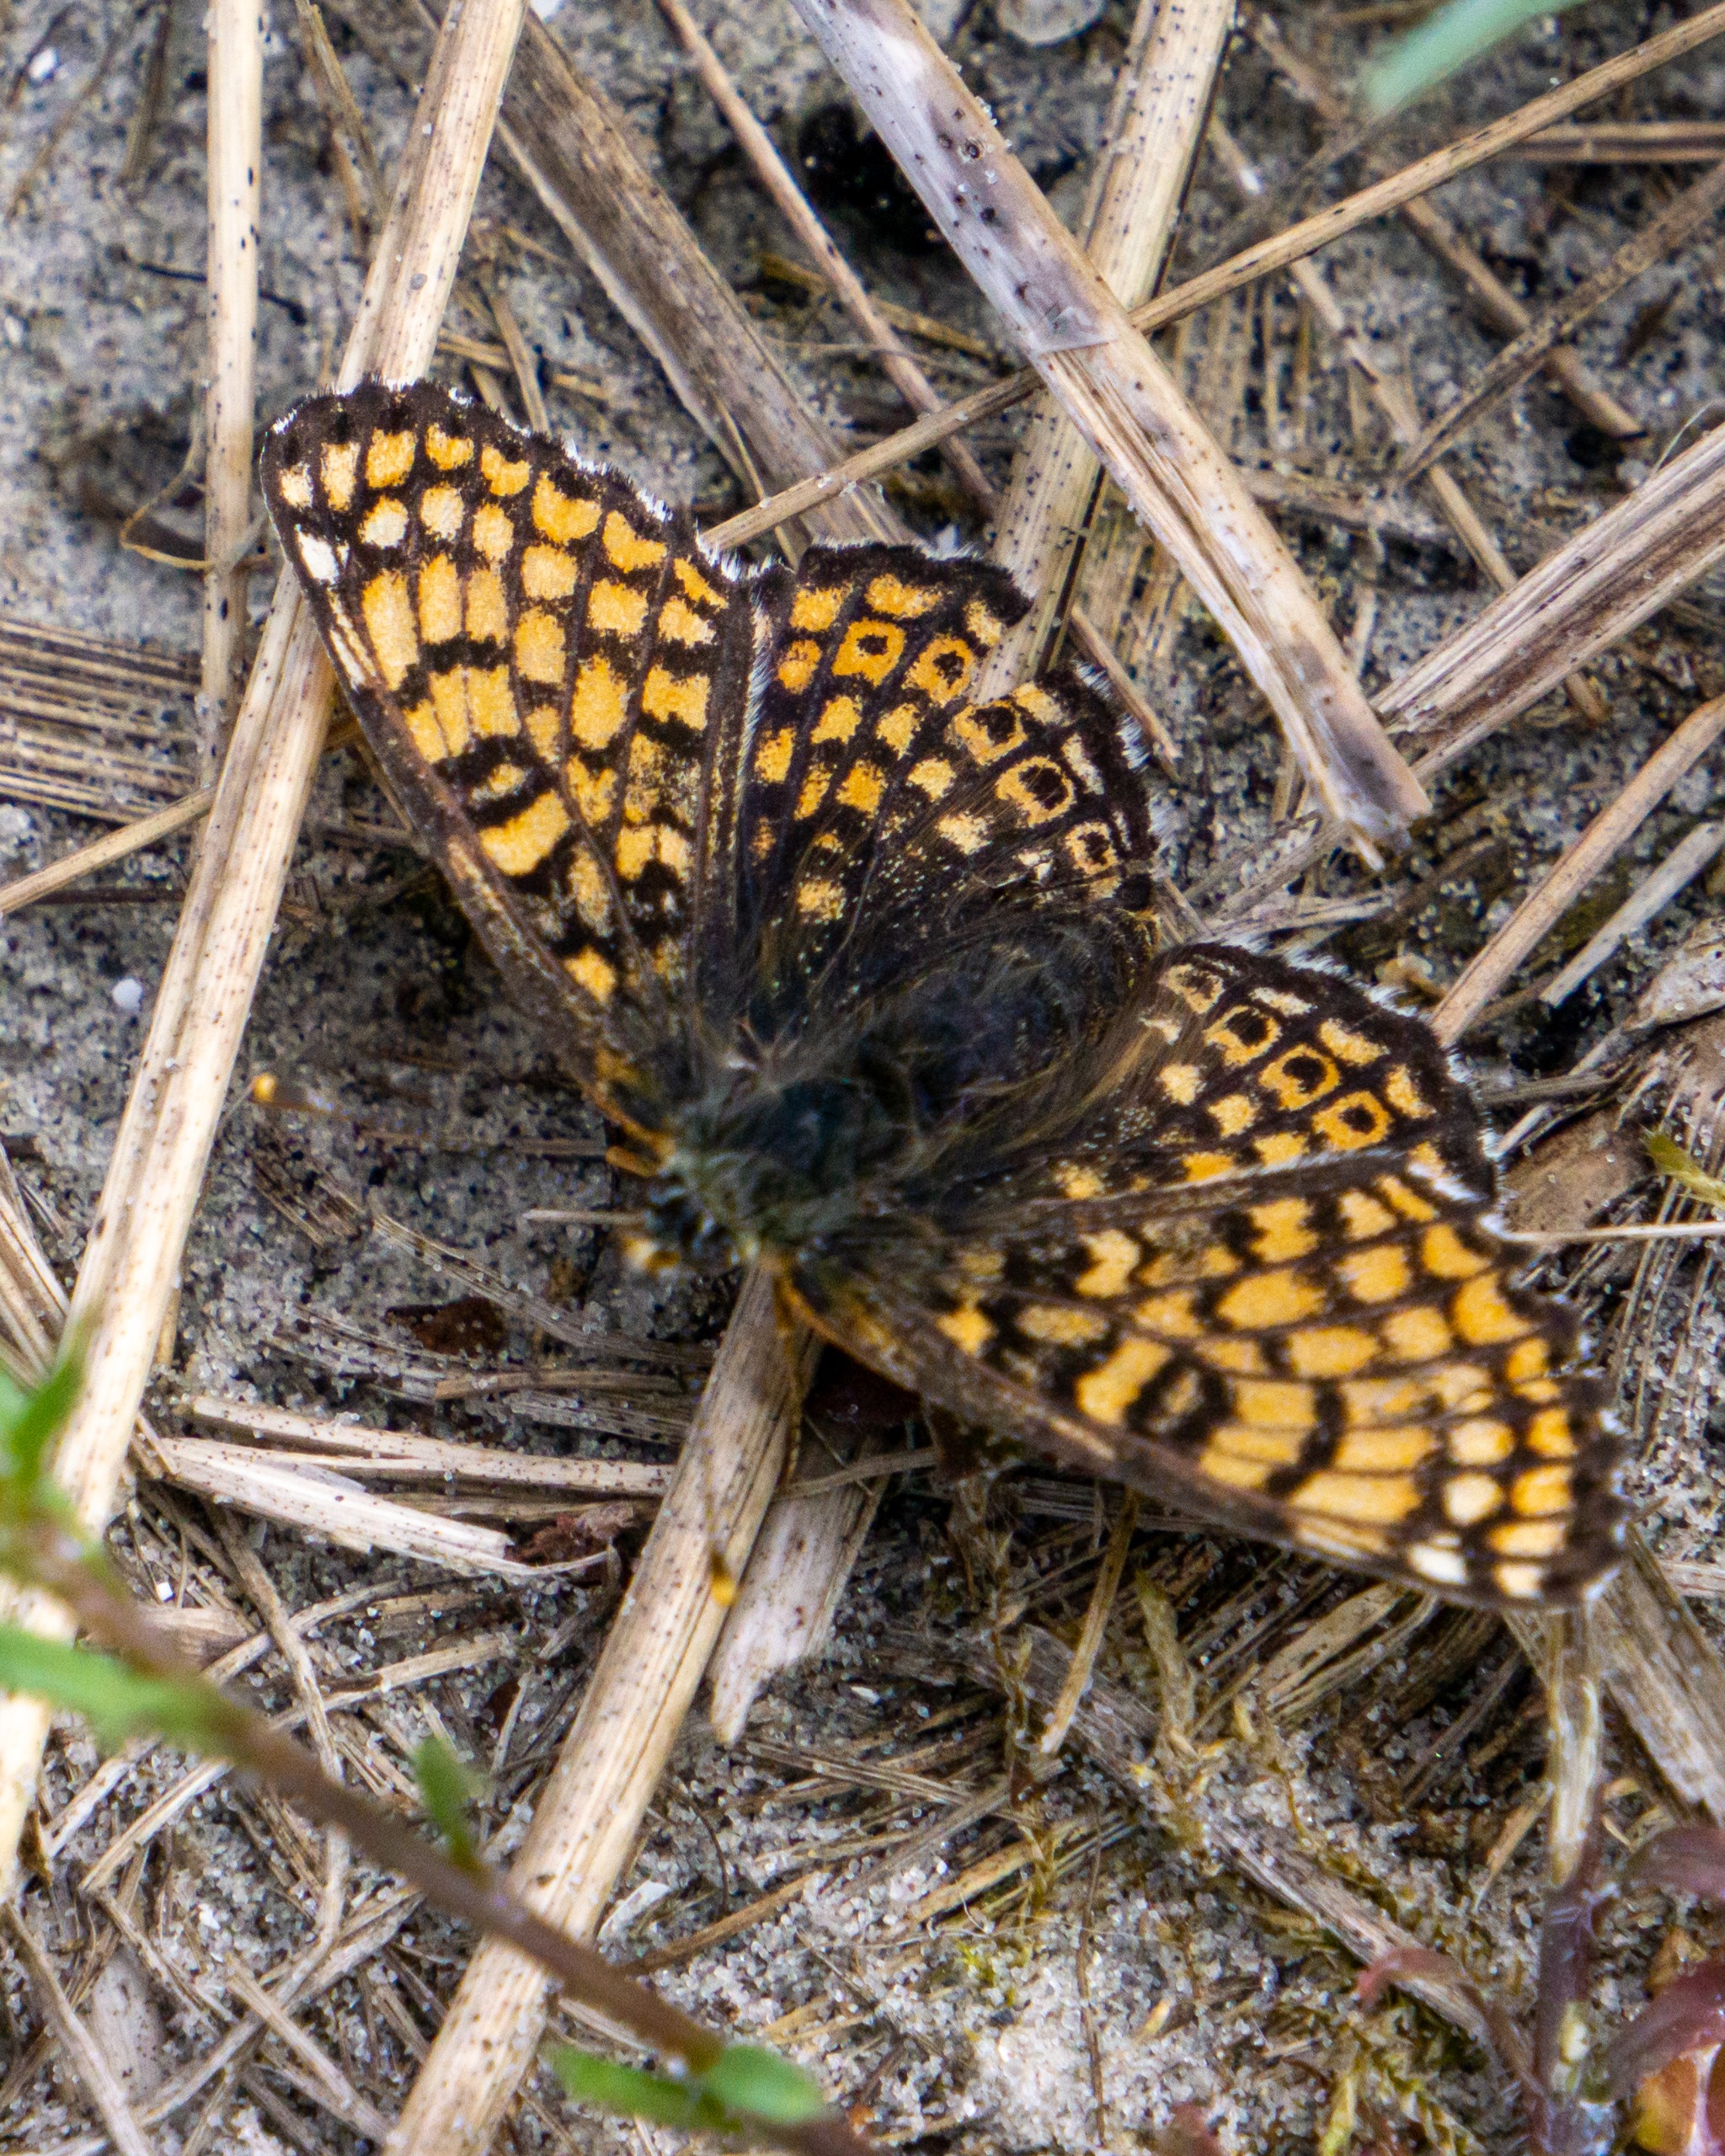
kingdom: Animalia
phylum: Arthropoda
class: Insecta
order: Lepidoptera
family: Nymphalidae
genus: Melitaea
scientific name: Melitaea cinxia
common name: Okkergul pletvinge
